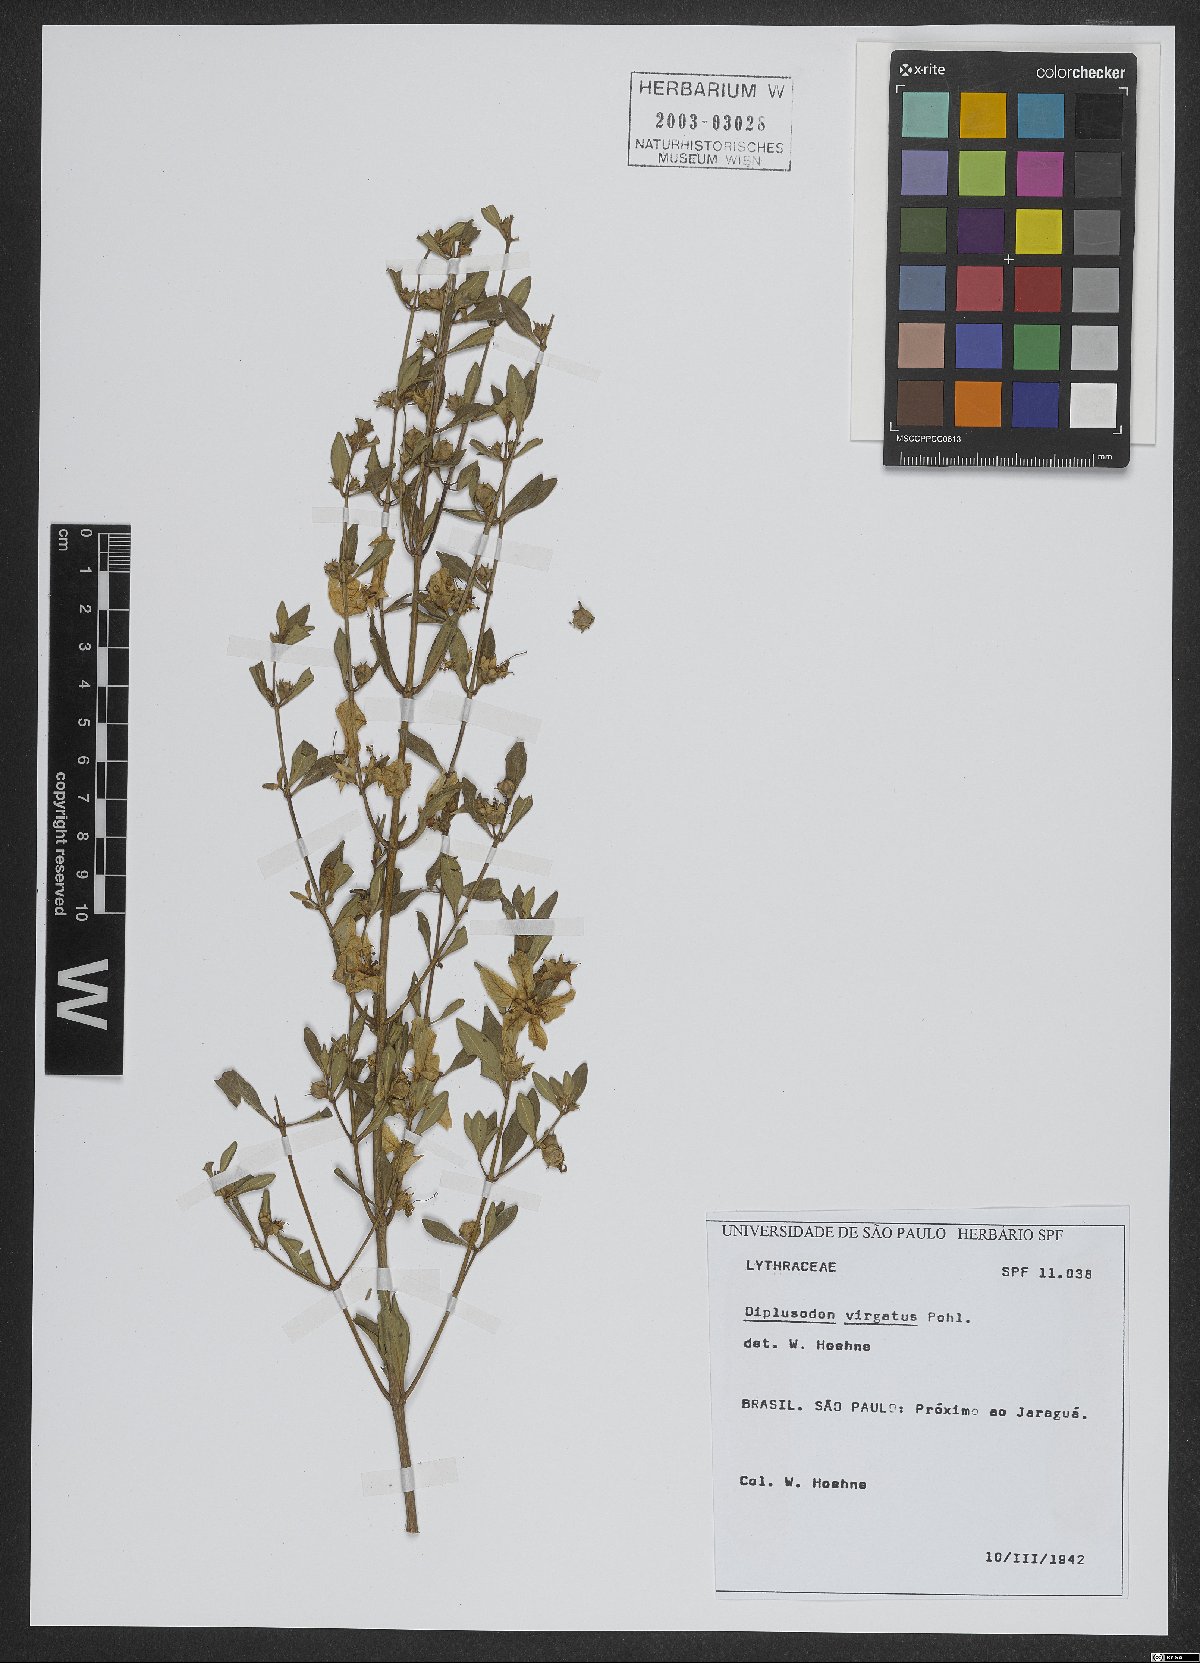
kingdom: Plantae
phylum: Tracheophyta
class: Magnoliopsida
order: Myrtales
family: Lythraceae
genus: Diplusodon
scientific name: Diplusodon virgatus
